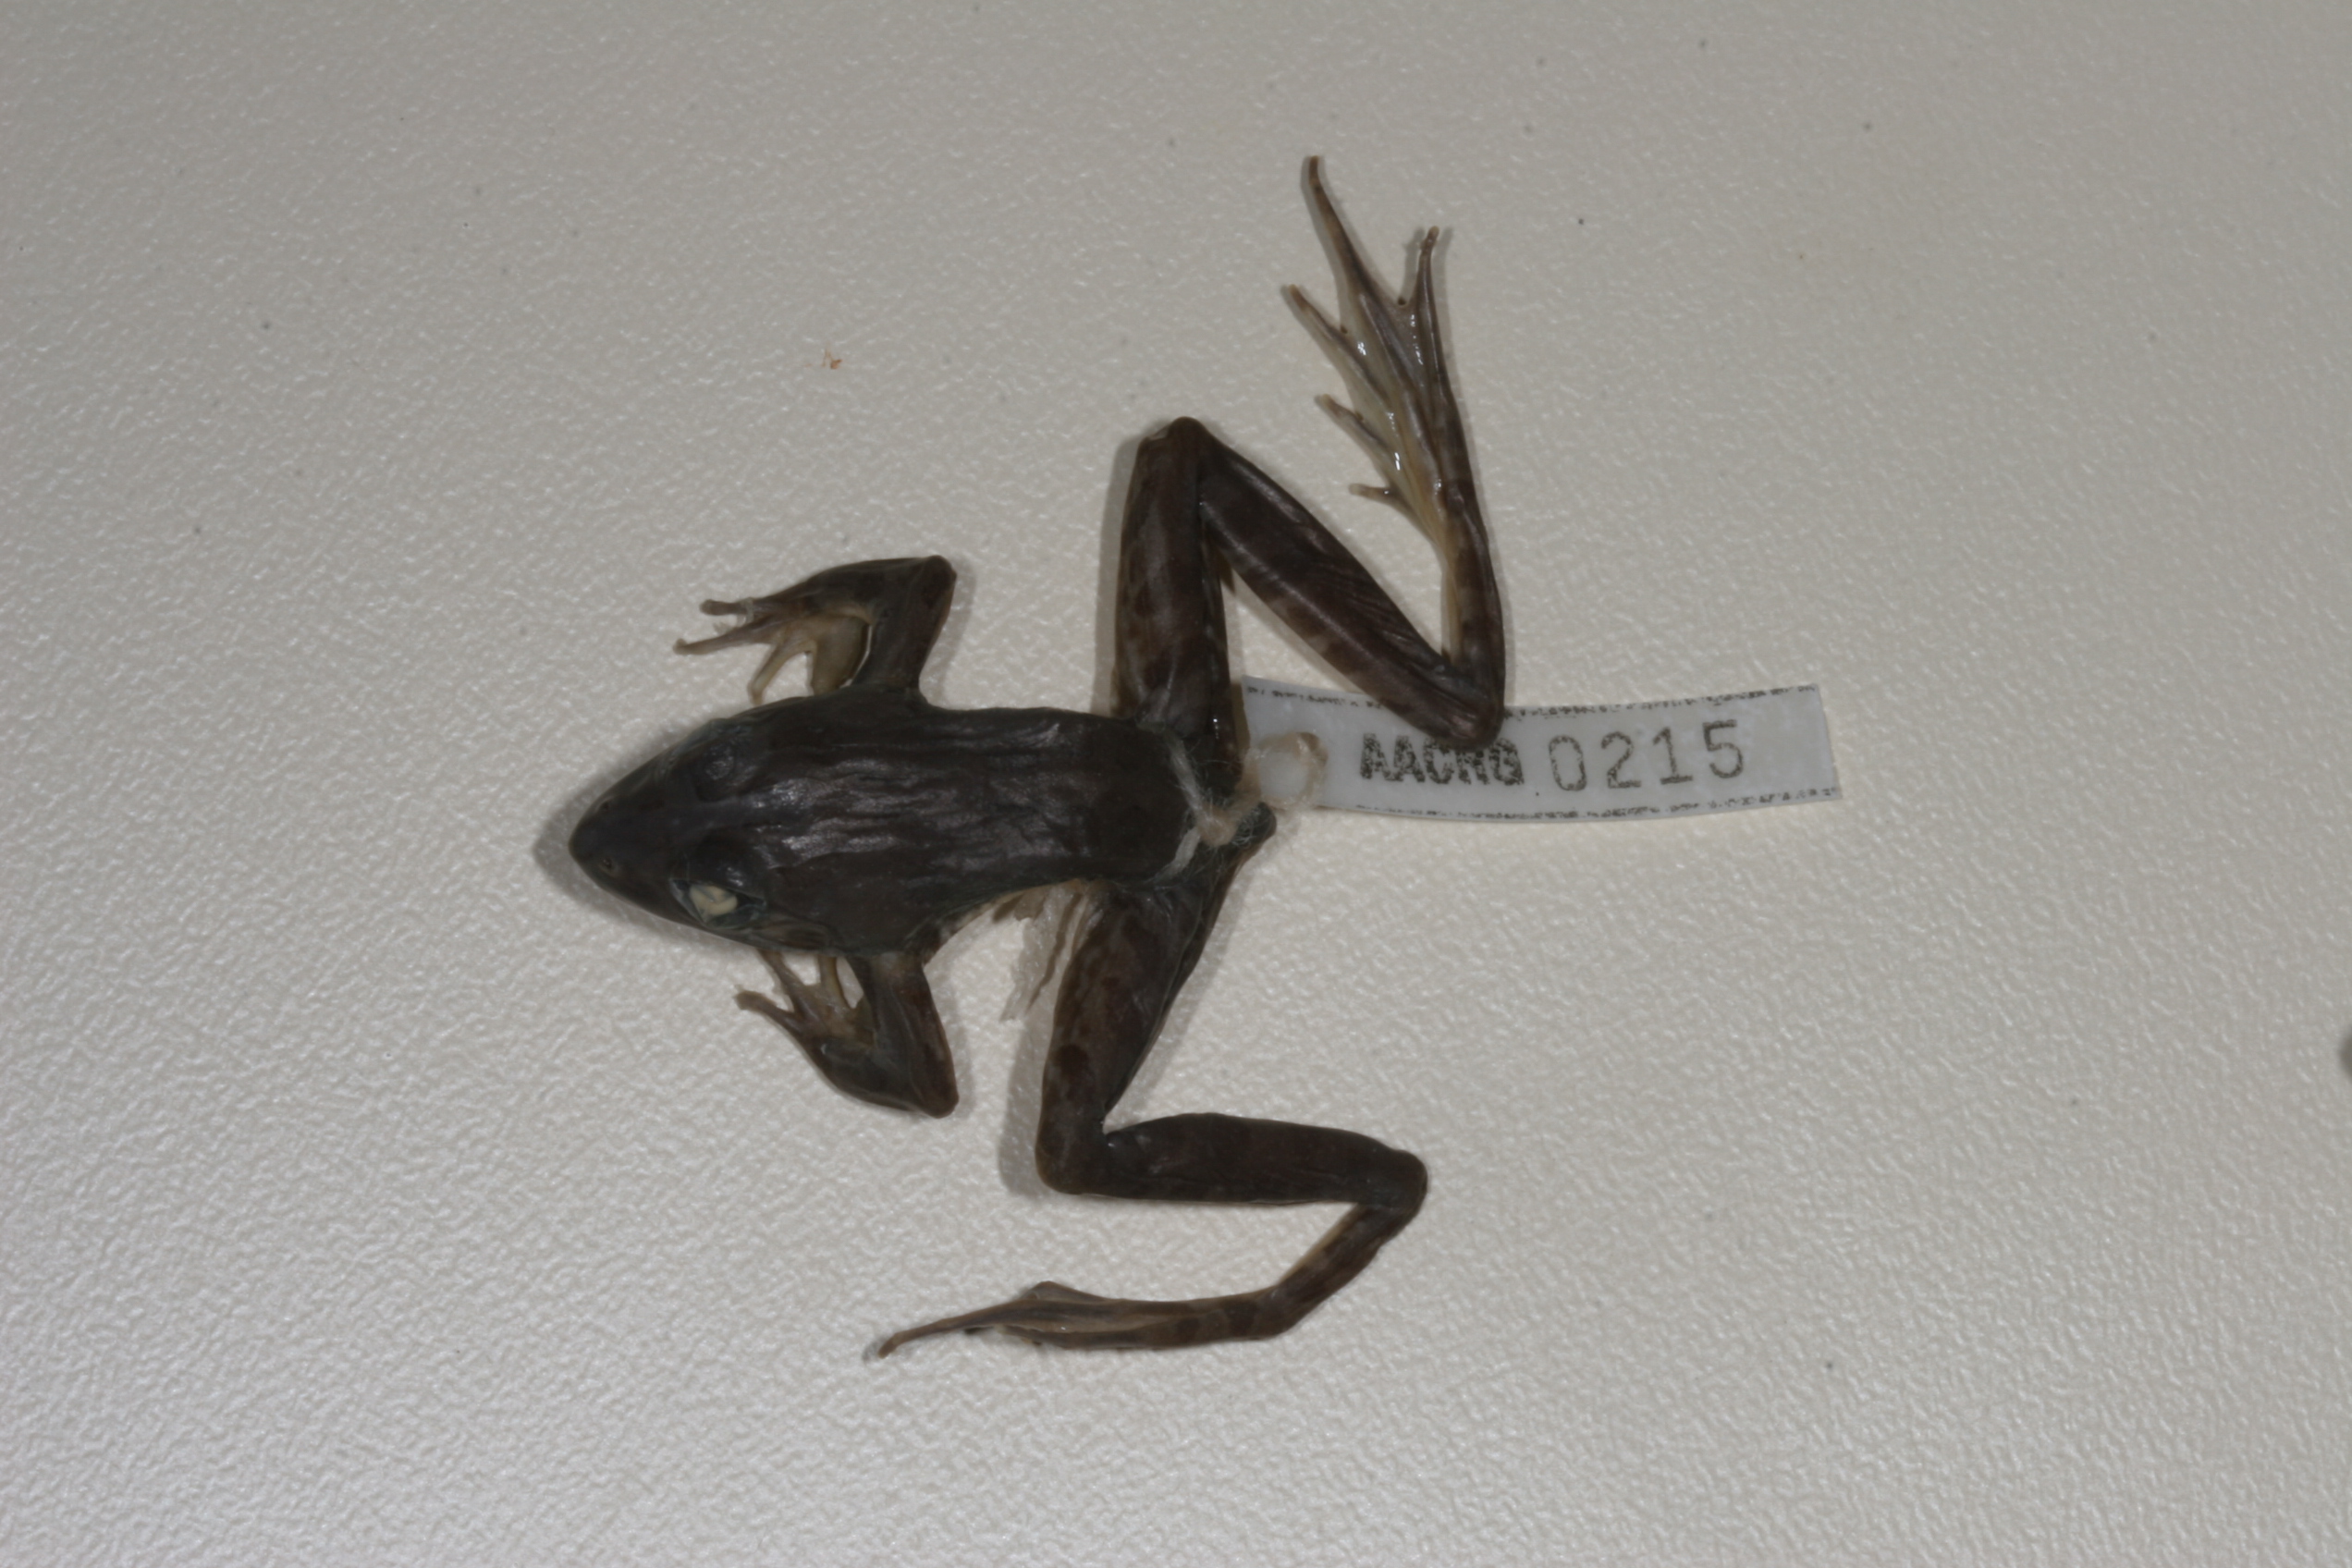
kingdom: Animalia
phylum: Chordata
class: Amphibia
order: Anura
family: Pyxicephalidae
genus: Amietia
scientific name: Amietia angolensis
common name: Dusky-throated frog
